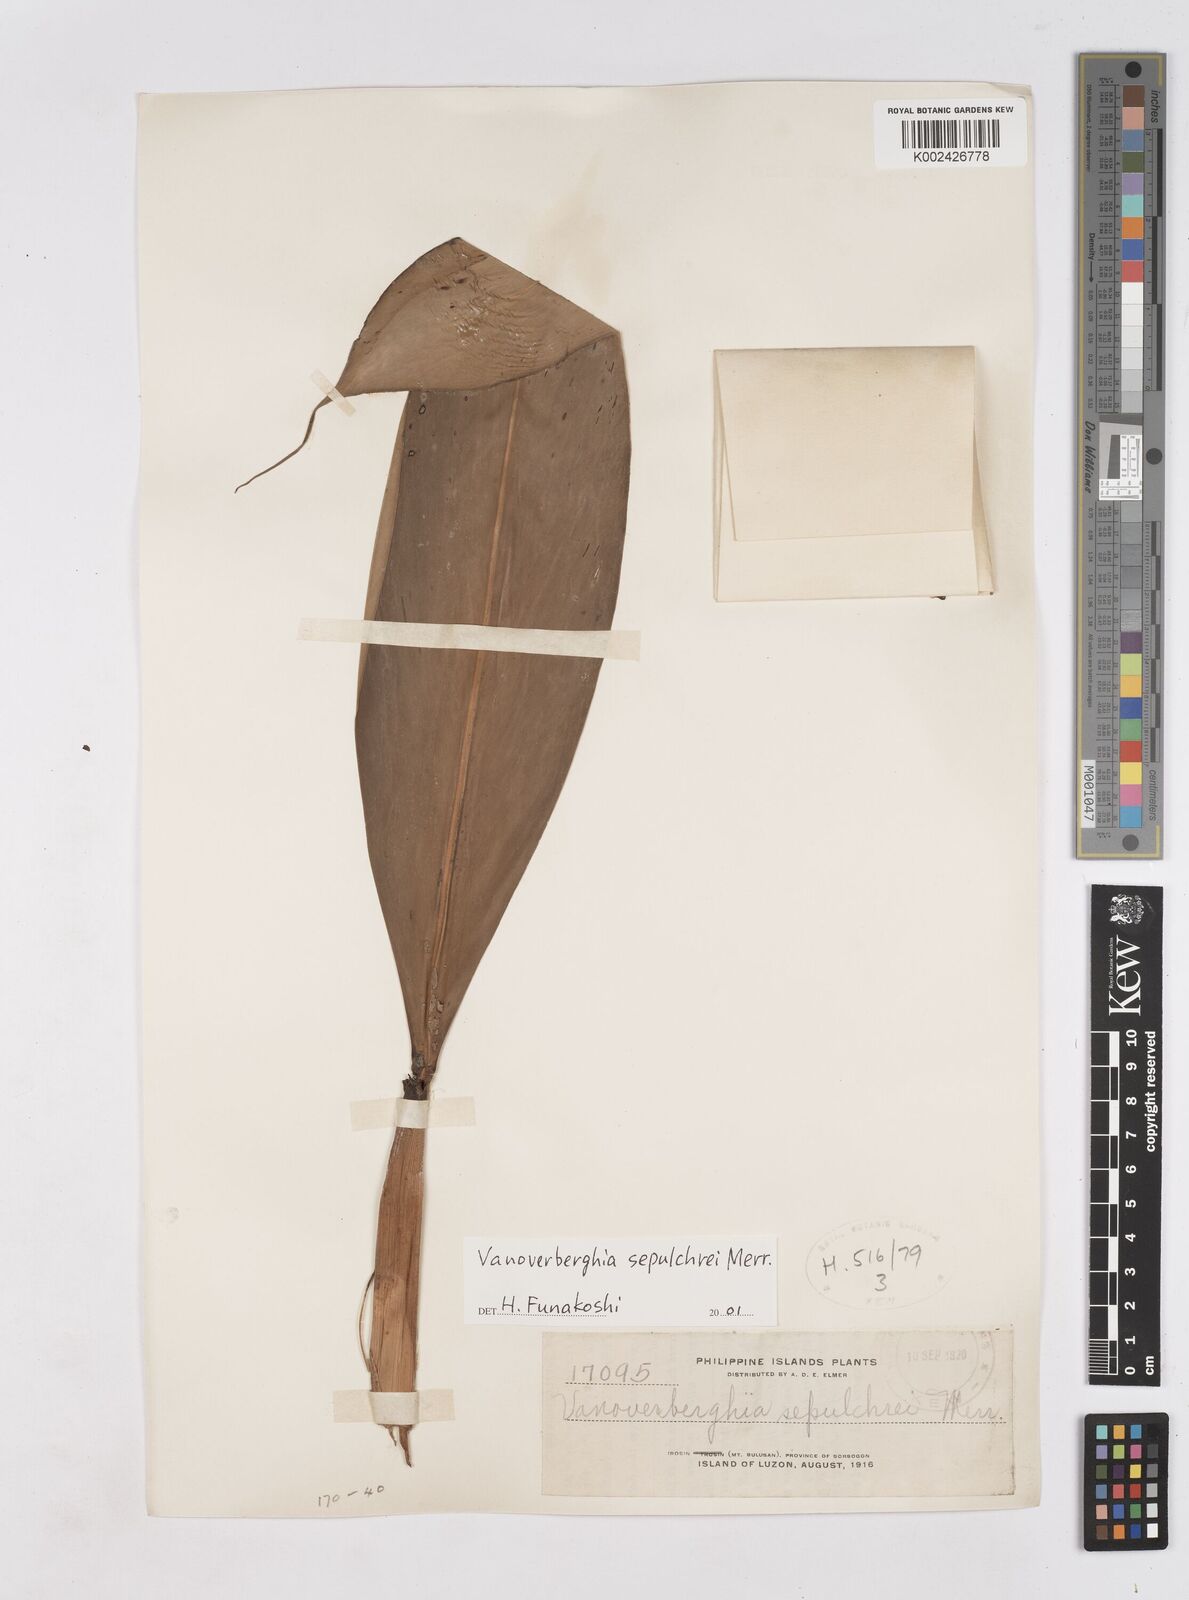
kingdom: Plantae
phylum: Tracheophyta
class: Liliopsida
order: Zingiberales
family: Zingiberaceae
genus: Vanoverberghia
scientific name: Vanoverberghia sepulchrei
